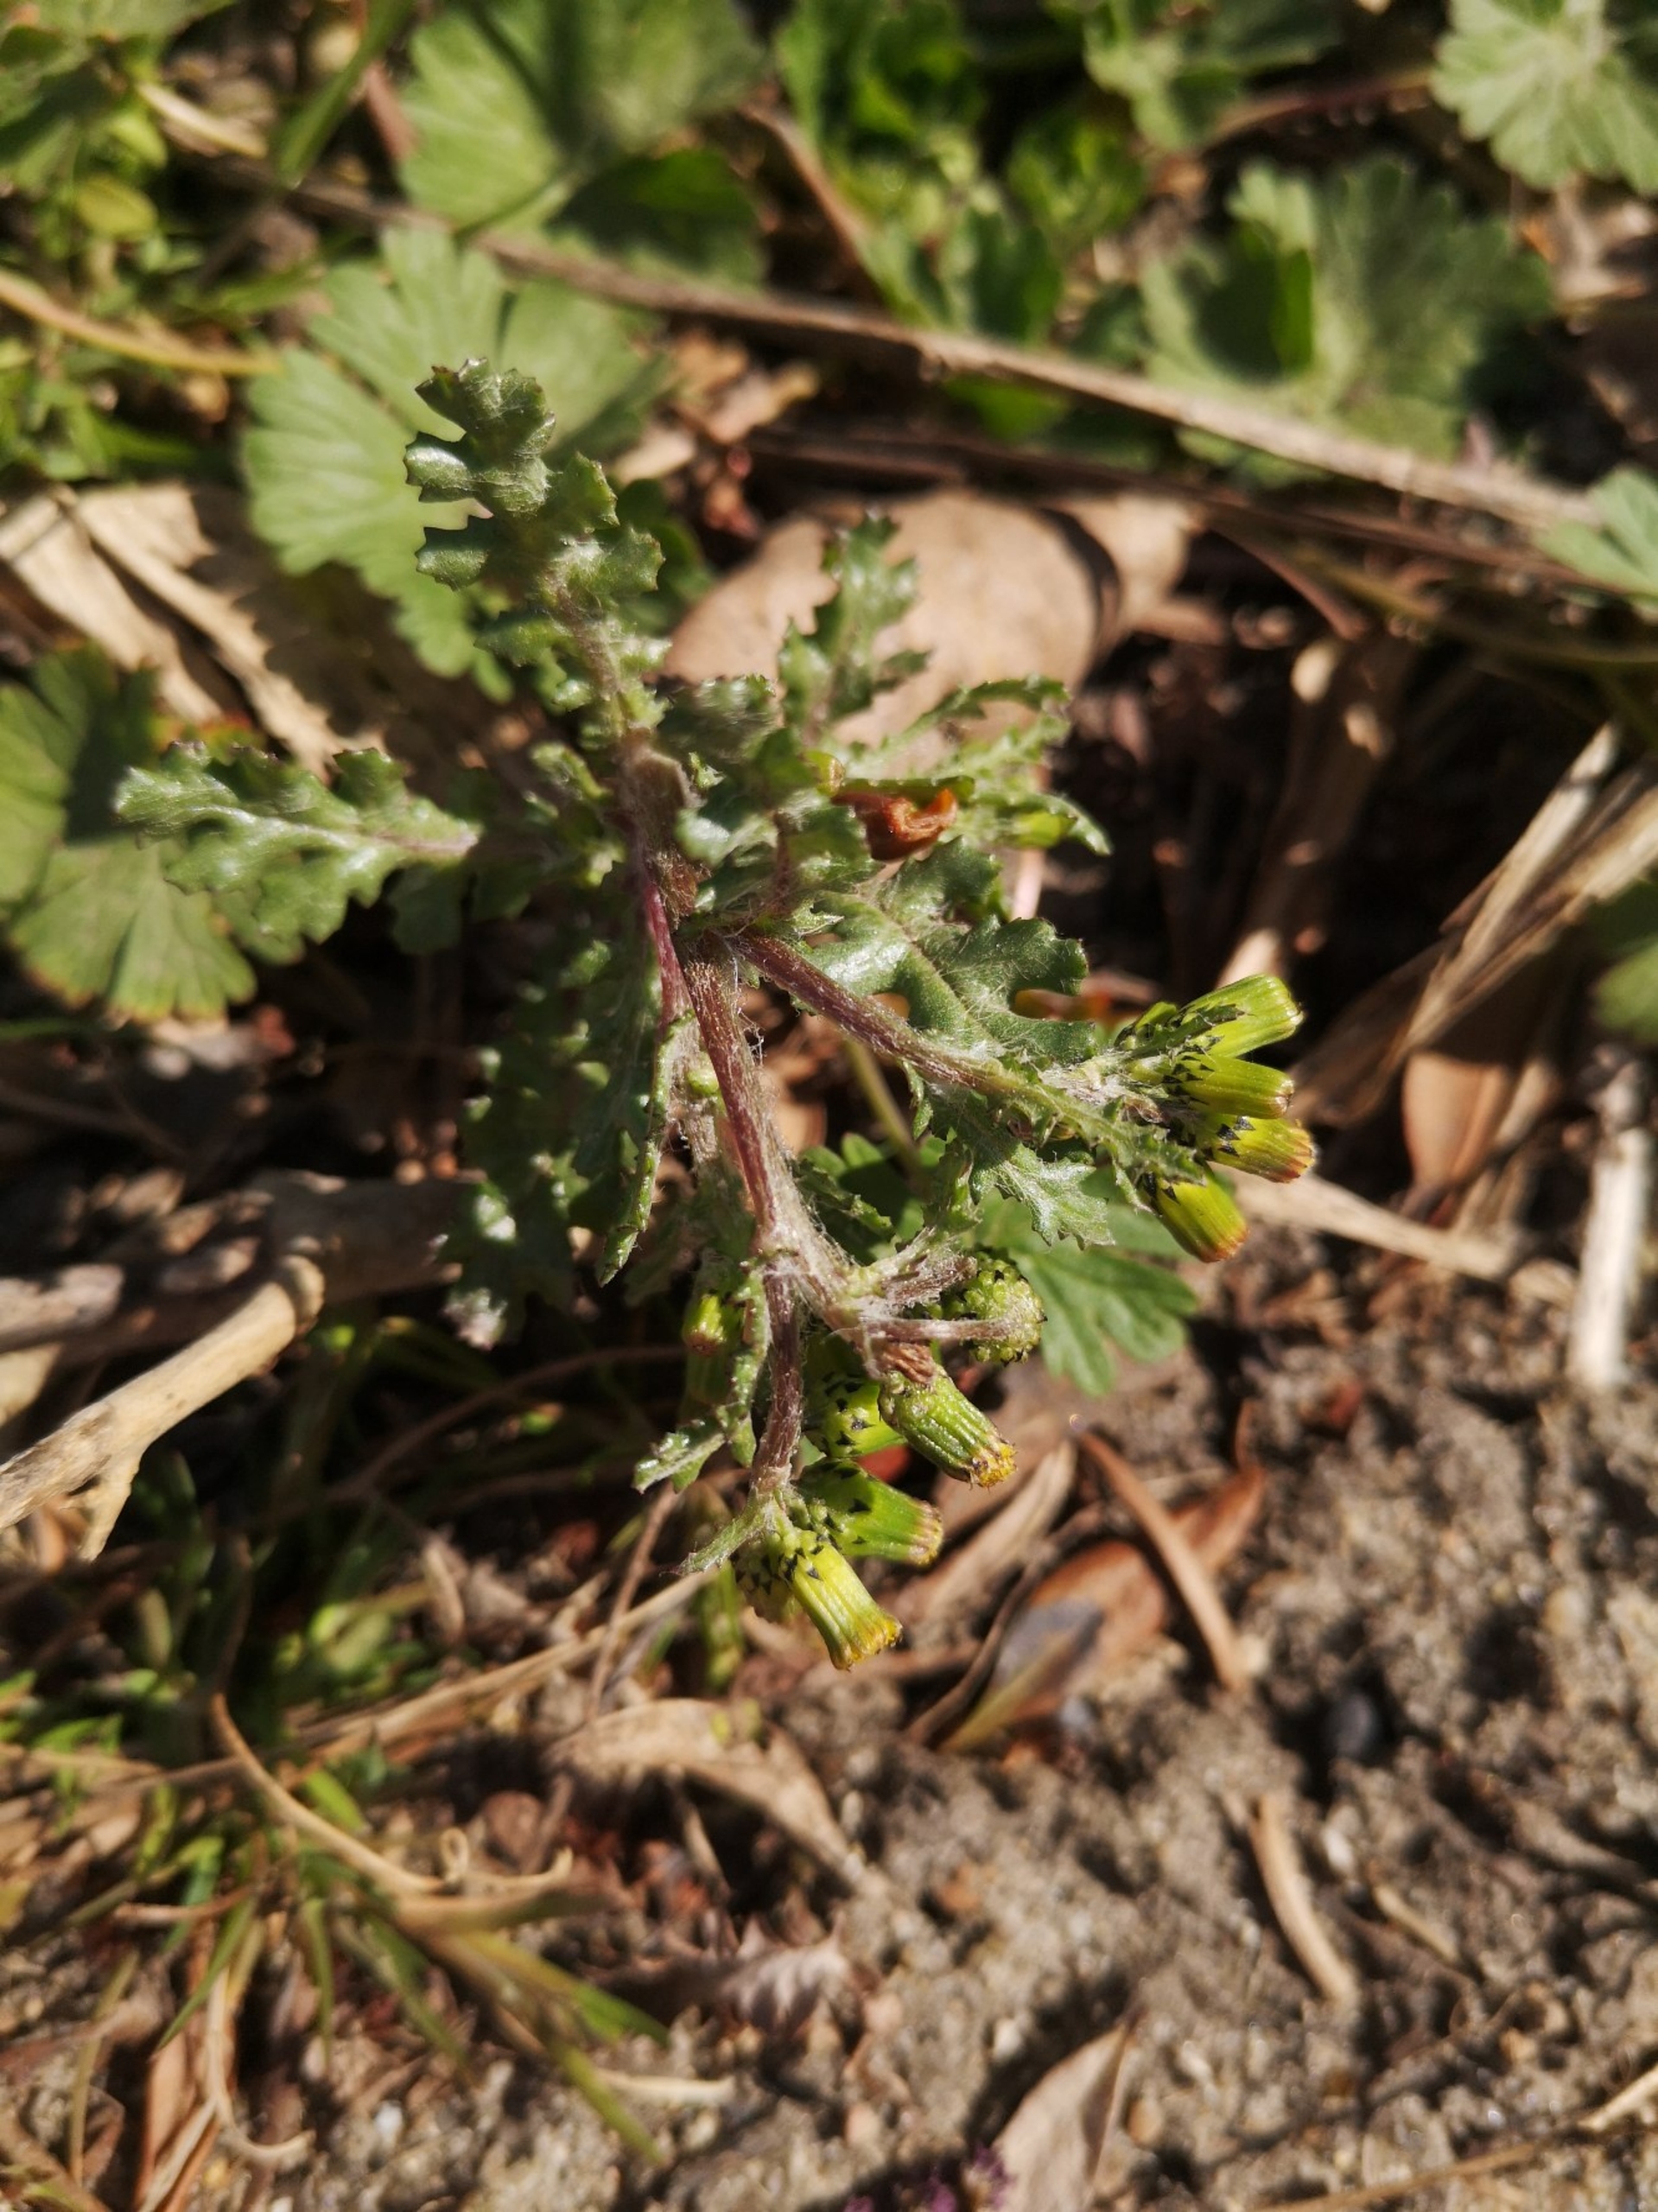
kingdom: Plantae
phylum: Tracheophyta
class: Magnoliopsida
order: Asterales
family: Asteraceae
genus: Senecio
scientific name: Senecio vulgaris
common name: Almindelig brandbæger
